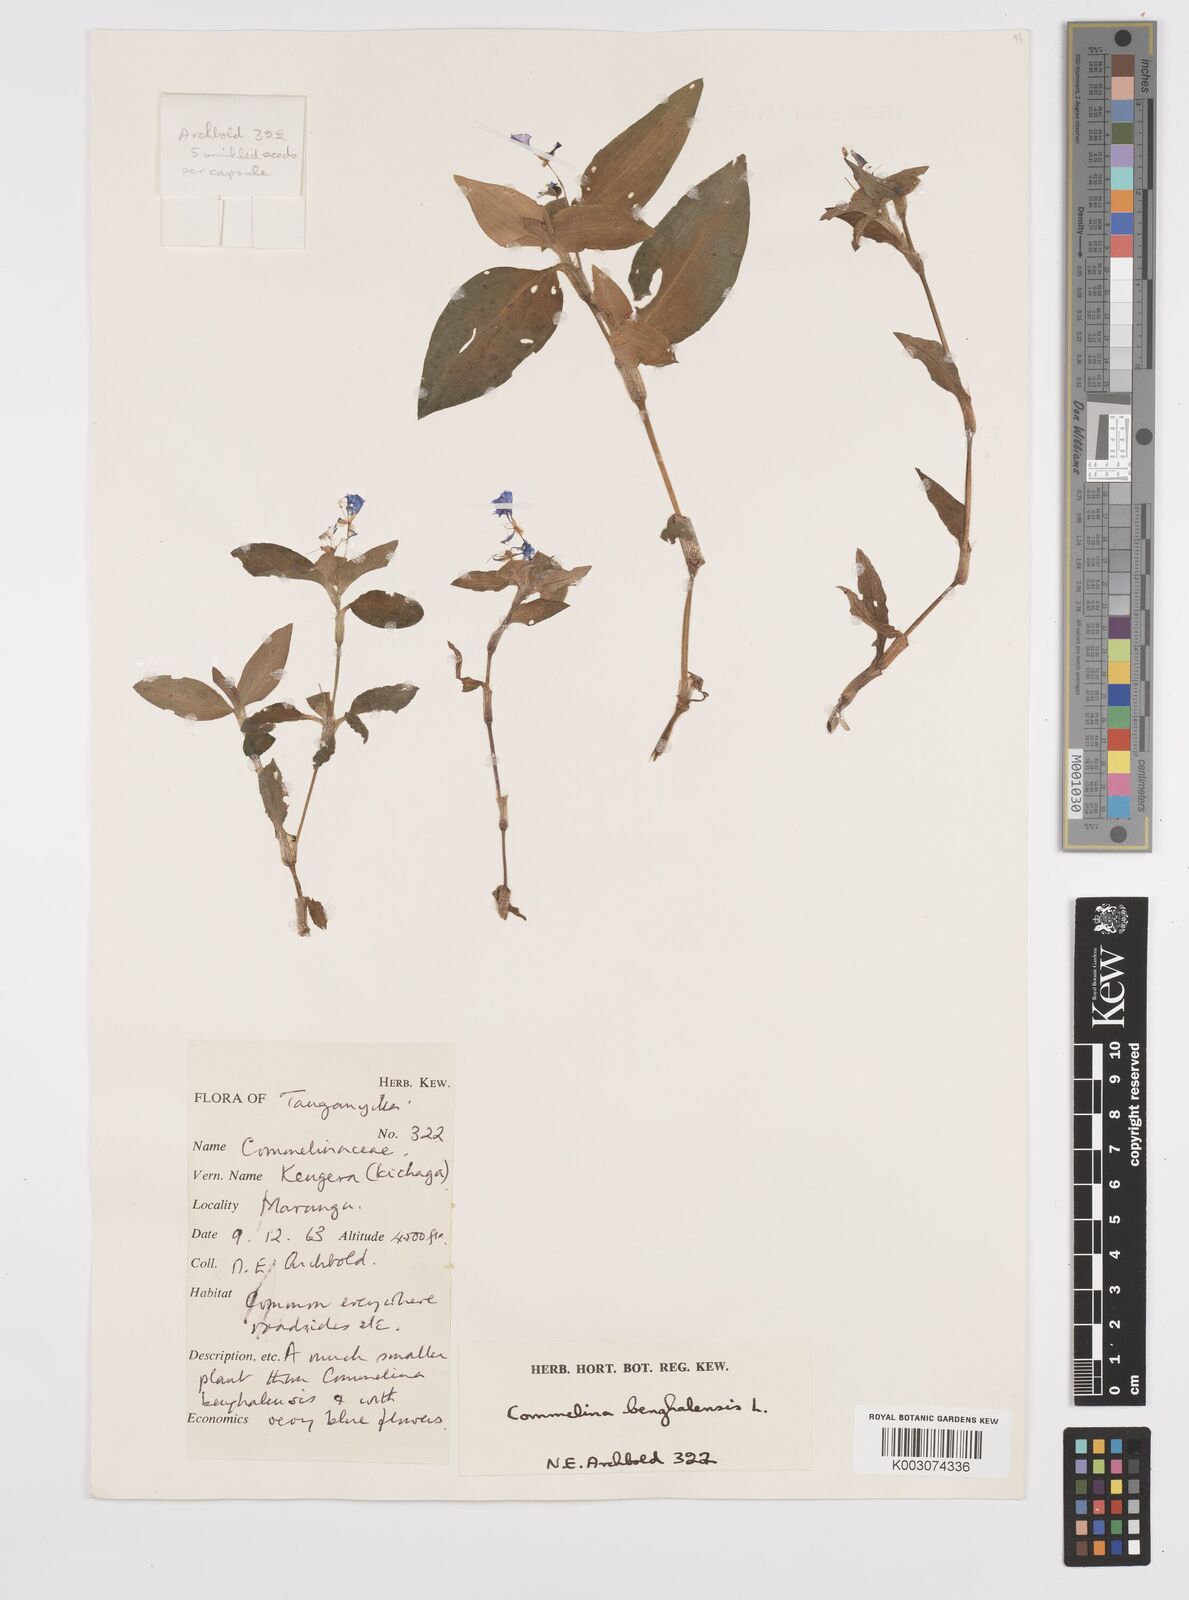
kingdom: Plantae
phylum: Tracheophyta
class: Liliopsida
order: Commelinales
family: Commelinaceae
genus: Commelina
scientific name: Commelina benghalensis
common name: Jio
